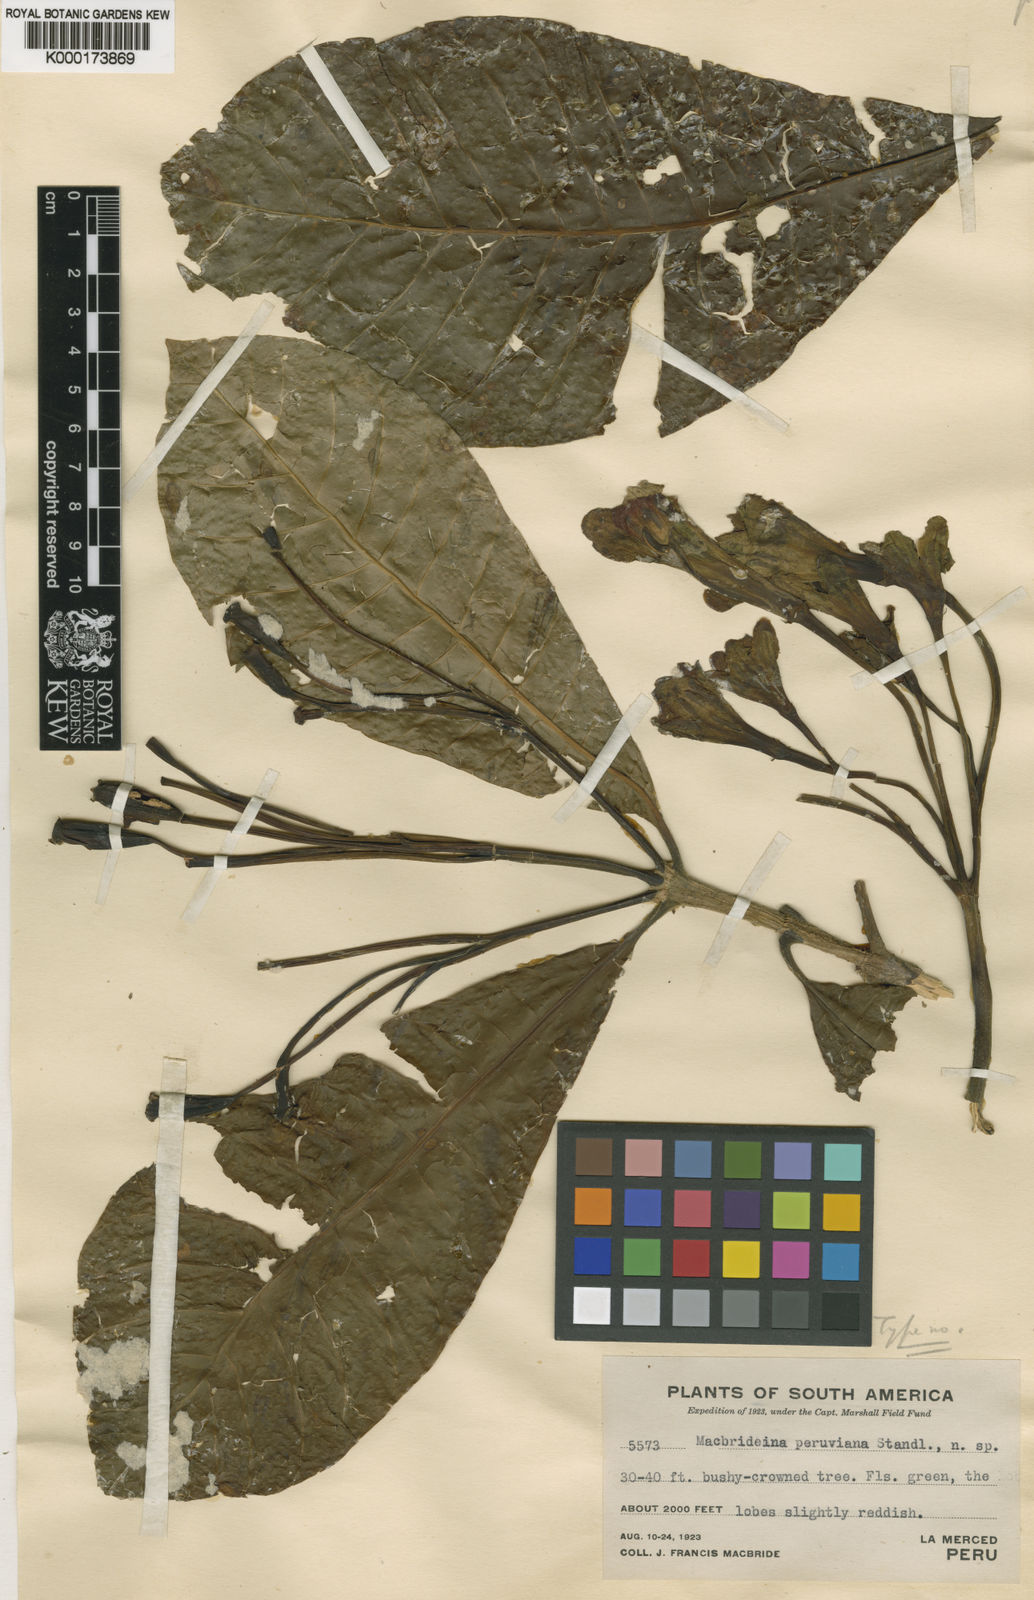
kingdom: Plantae
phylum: Tracheophyta
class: Magnoliopsida
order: Gentianales
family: Rubiaceae
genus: Macbrideina
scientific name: Macbrideina peruviana
